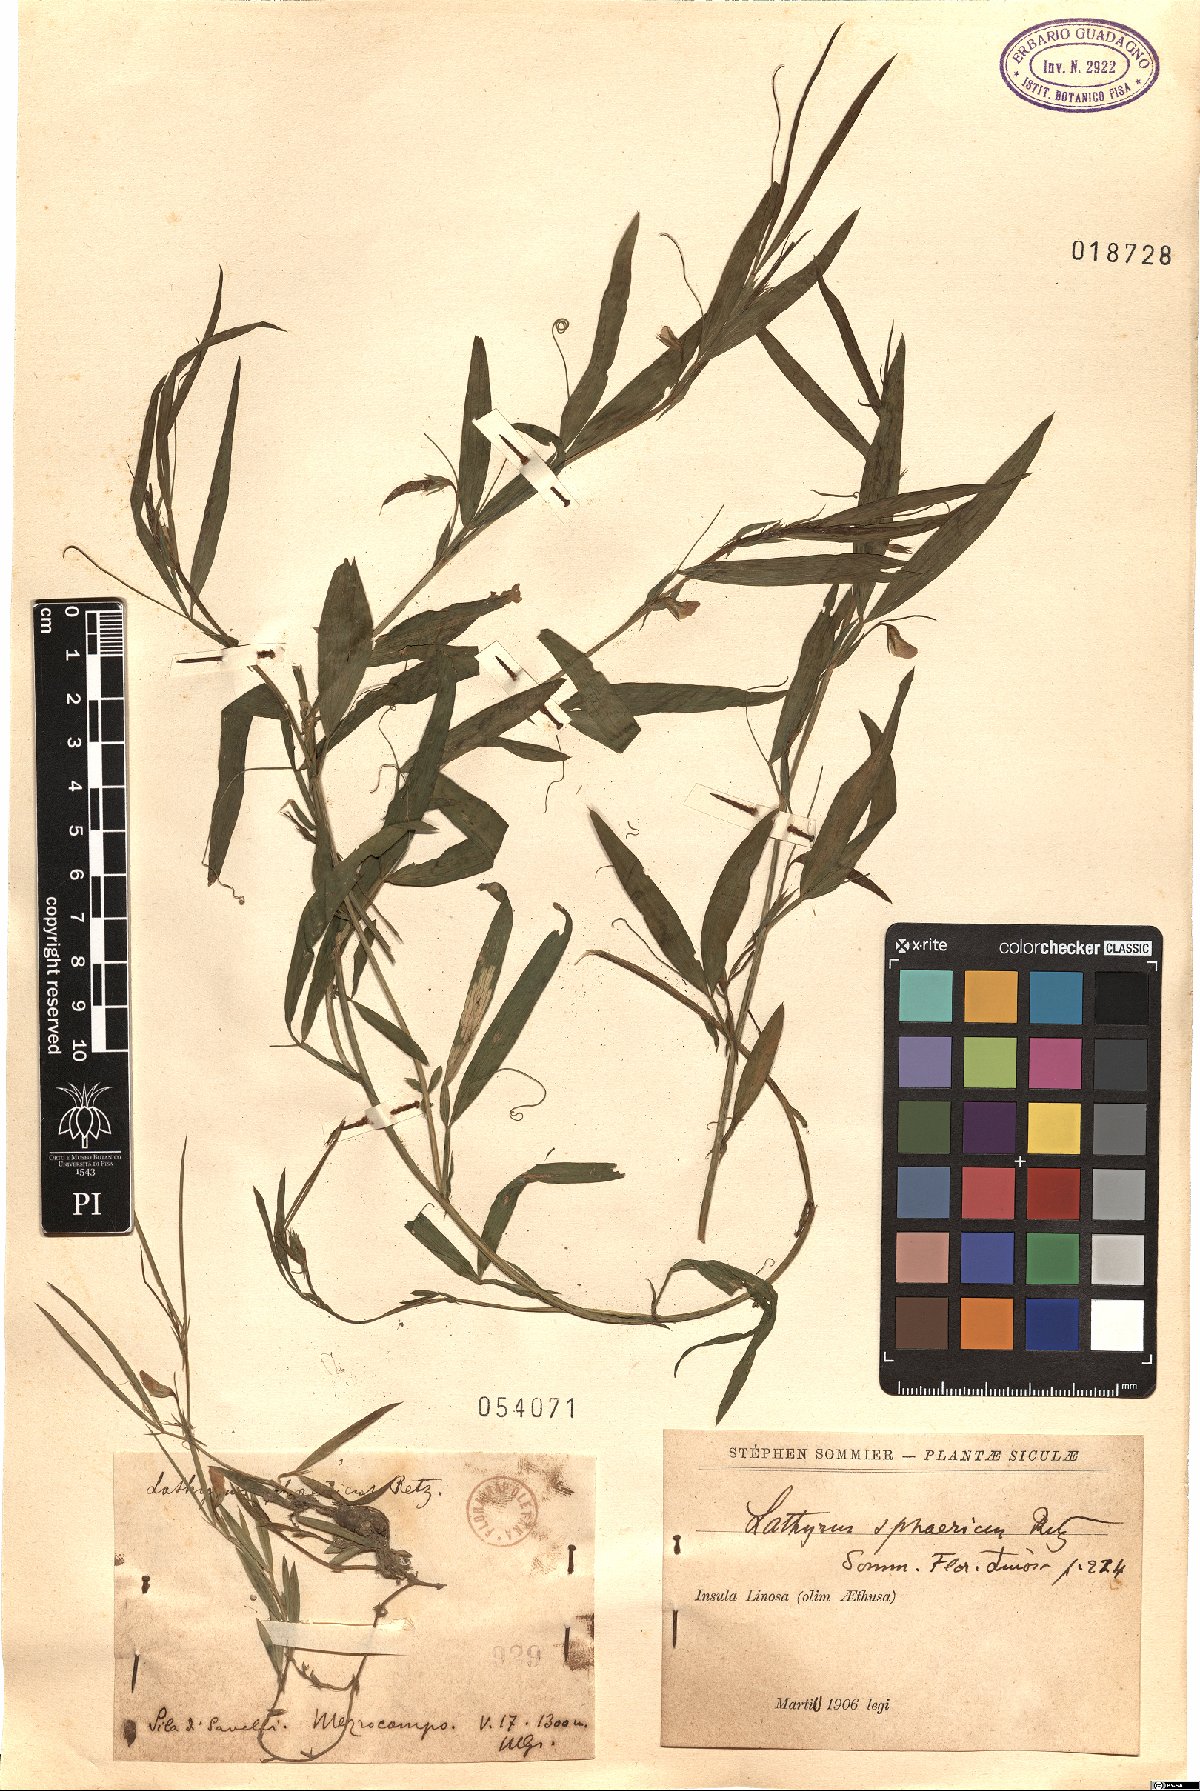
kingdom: Plantae
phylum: Tracheophyta
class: Magnoliopsida
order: Fabales
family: Fabaceae
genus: Lathyrus
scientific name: Lathyrus sphaericus
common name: Grass pea
